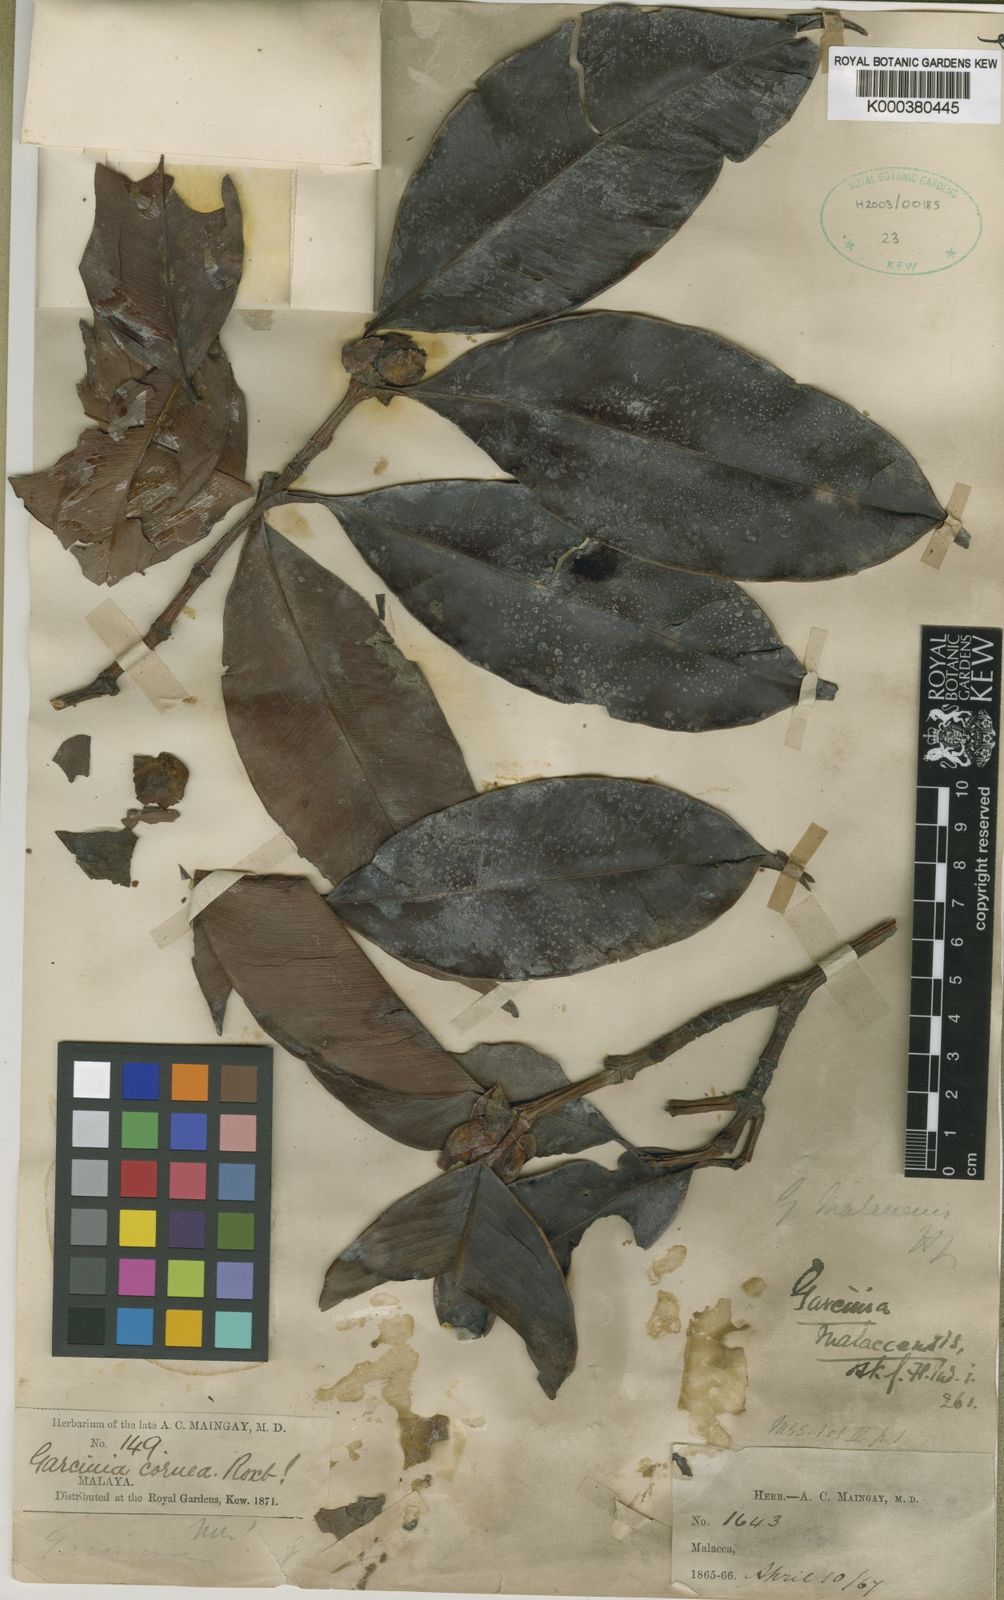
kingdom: Plantae
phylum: Tracheophyta
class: Magnoliopsida
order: Malpighiales
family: Clusiaceae
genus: Garcinia
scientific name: Garcinia mangostana
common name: Mangosteen
